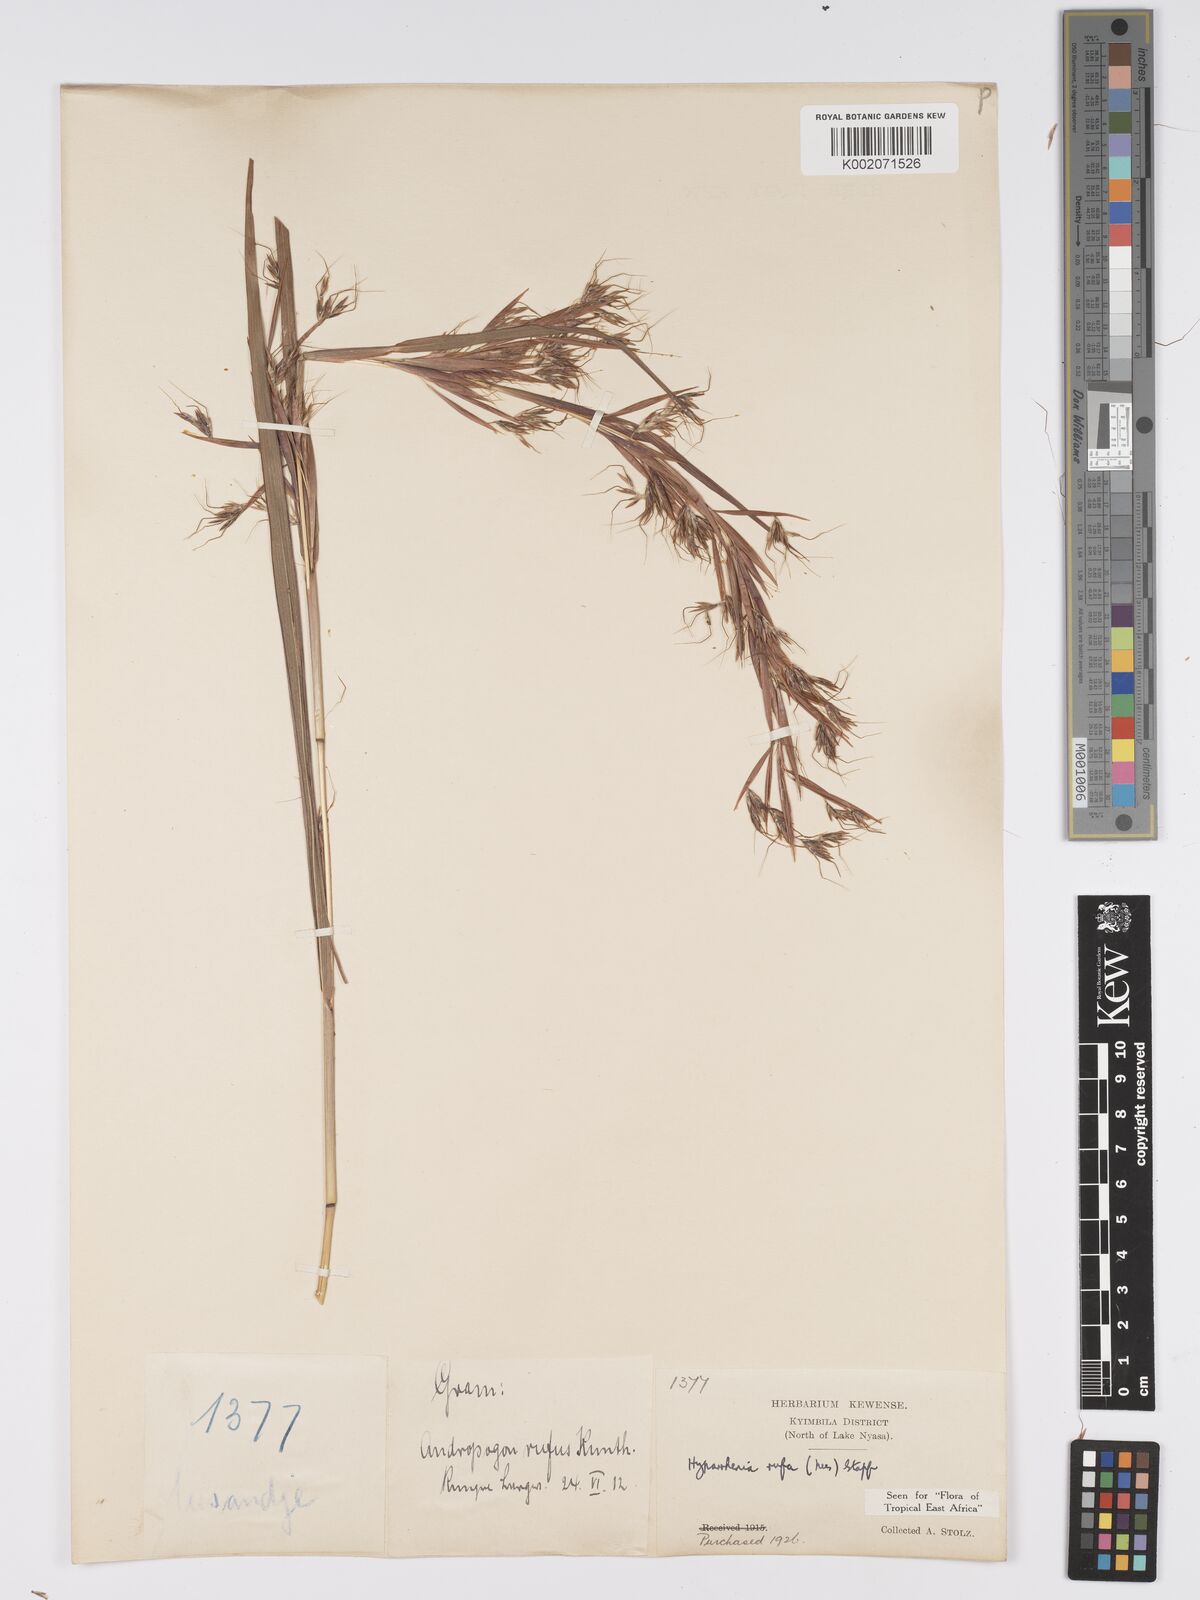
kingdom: Plantae
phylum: Tracheophyta
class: Liliopsida
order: Poales
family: Poaceae
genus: Hyparrhenia
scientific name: Hyparrhenia rufa
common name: Jaraguagrass
